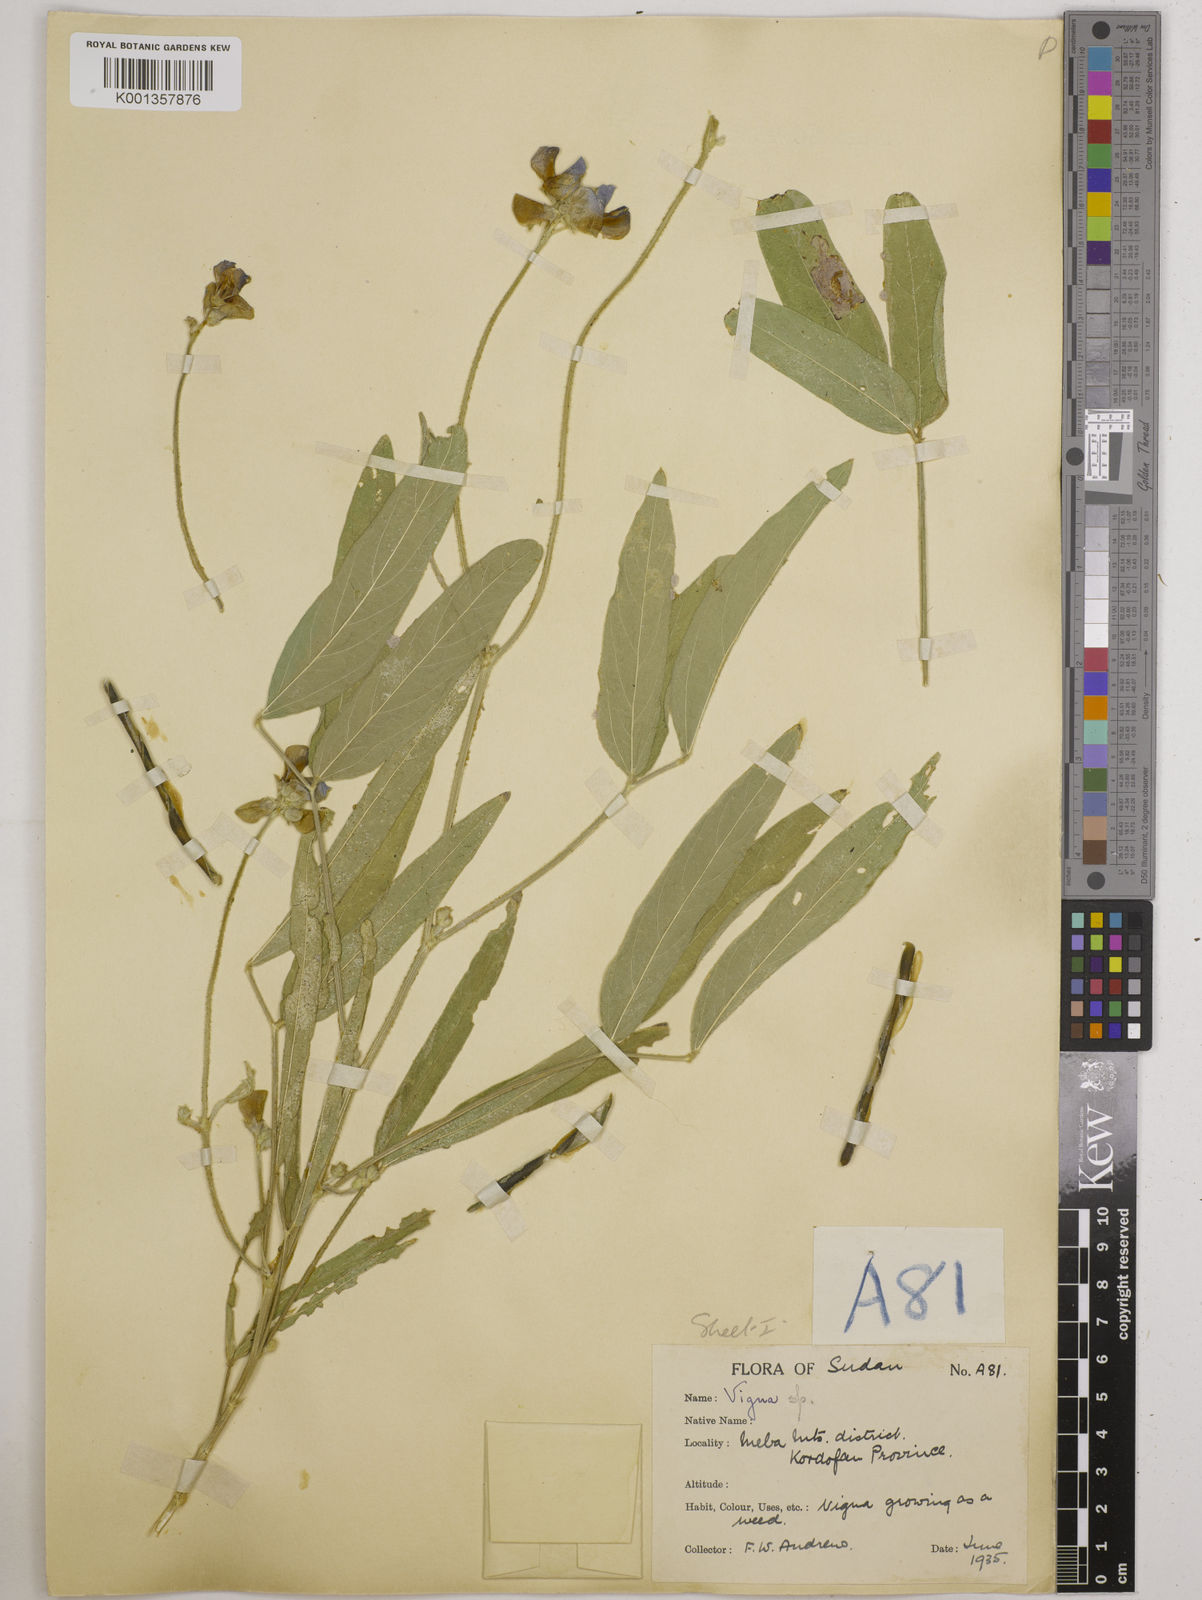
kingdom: Plantae
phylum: Tracheophyta
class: Magnoliopsida
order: Fabales
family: Fabaceae
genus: Vigna
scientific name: Vigna ambacensis
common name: Tsarkiyan zomo
